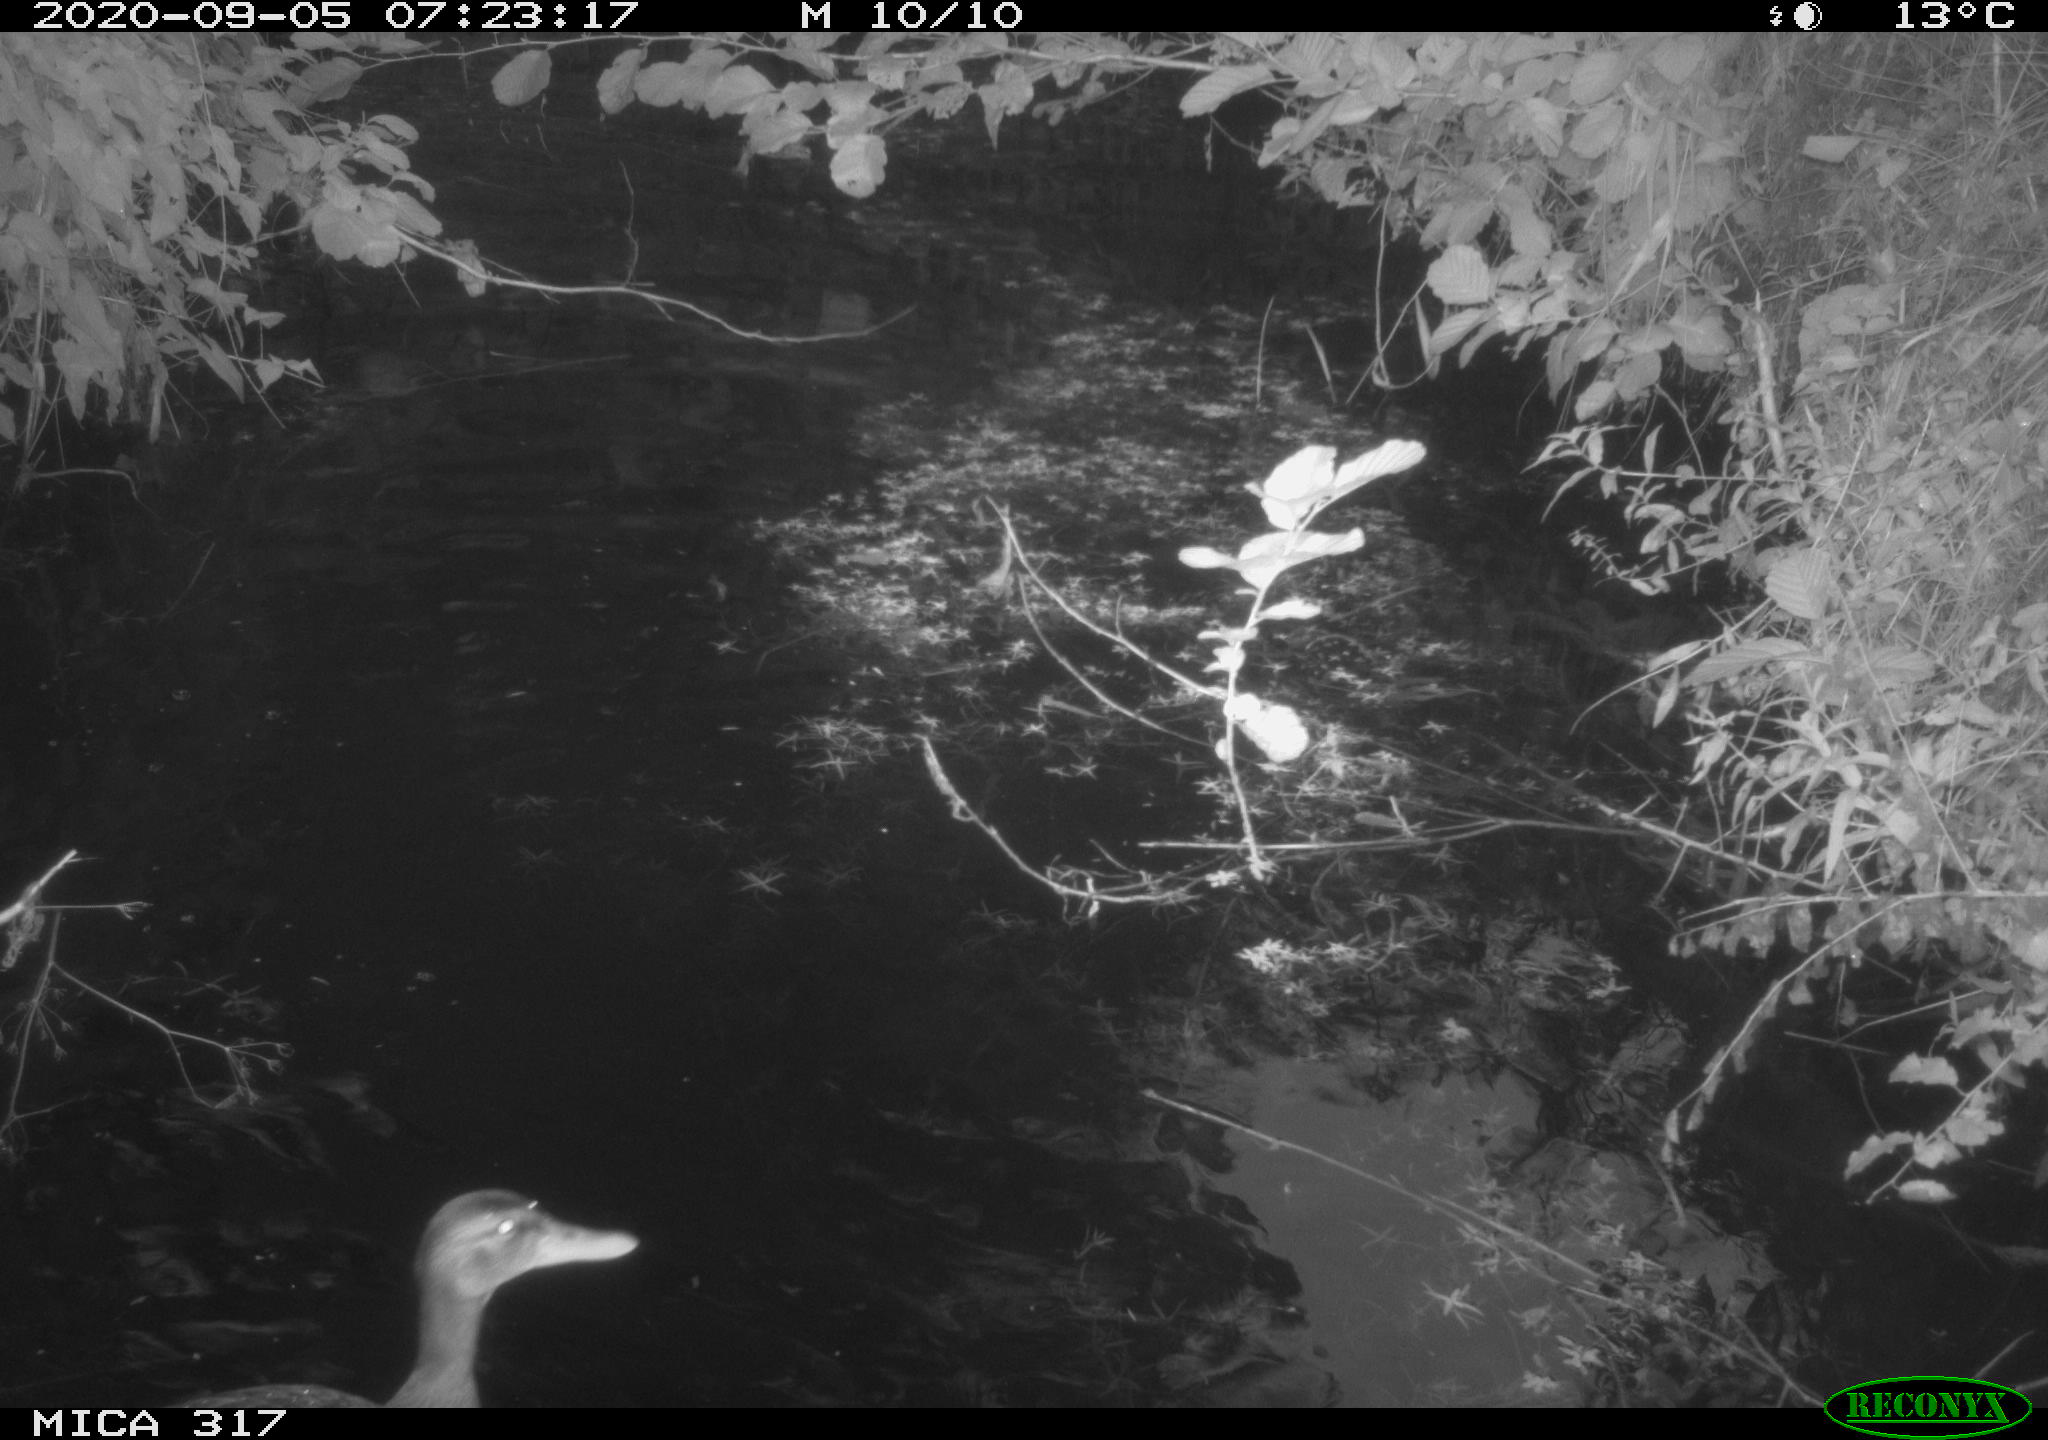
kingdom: Animalia
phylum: Chordata
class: Aves
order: Anseriformes
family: Anatidae
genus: Anas
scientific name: Anas platyrhynchos
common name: Mallard
